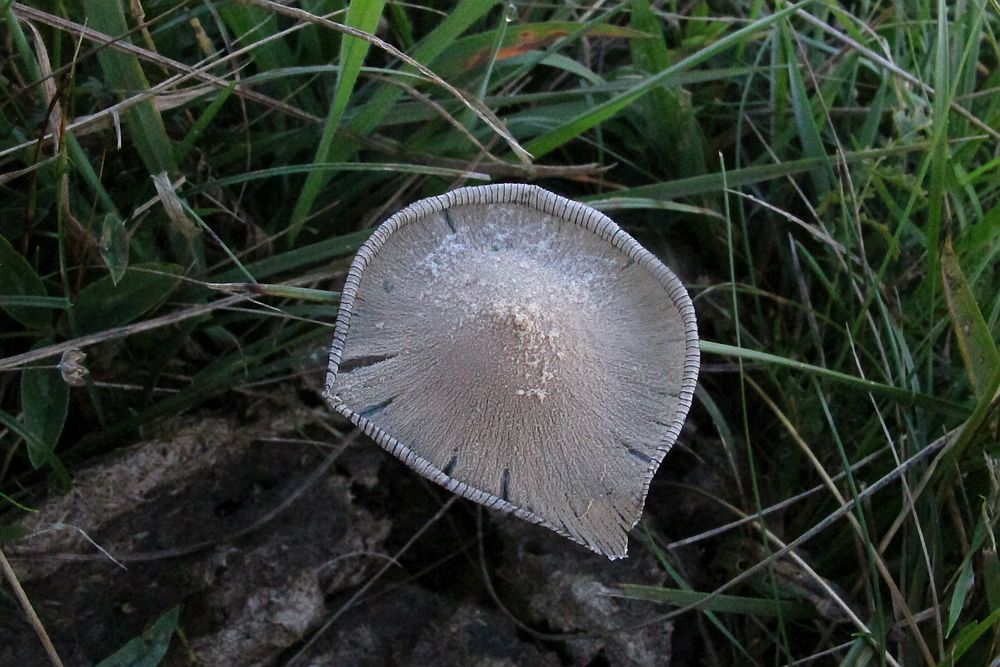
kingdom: Fungi
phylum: Basidiomycota
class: Agaricomycetes
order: Agaricales
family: Psathyrellaceae
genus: Coprinopsis
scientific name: Coprinopsis pseudonivea
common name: pudret blækhat
